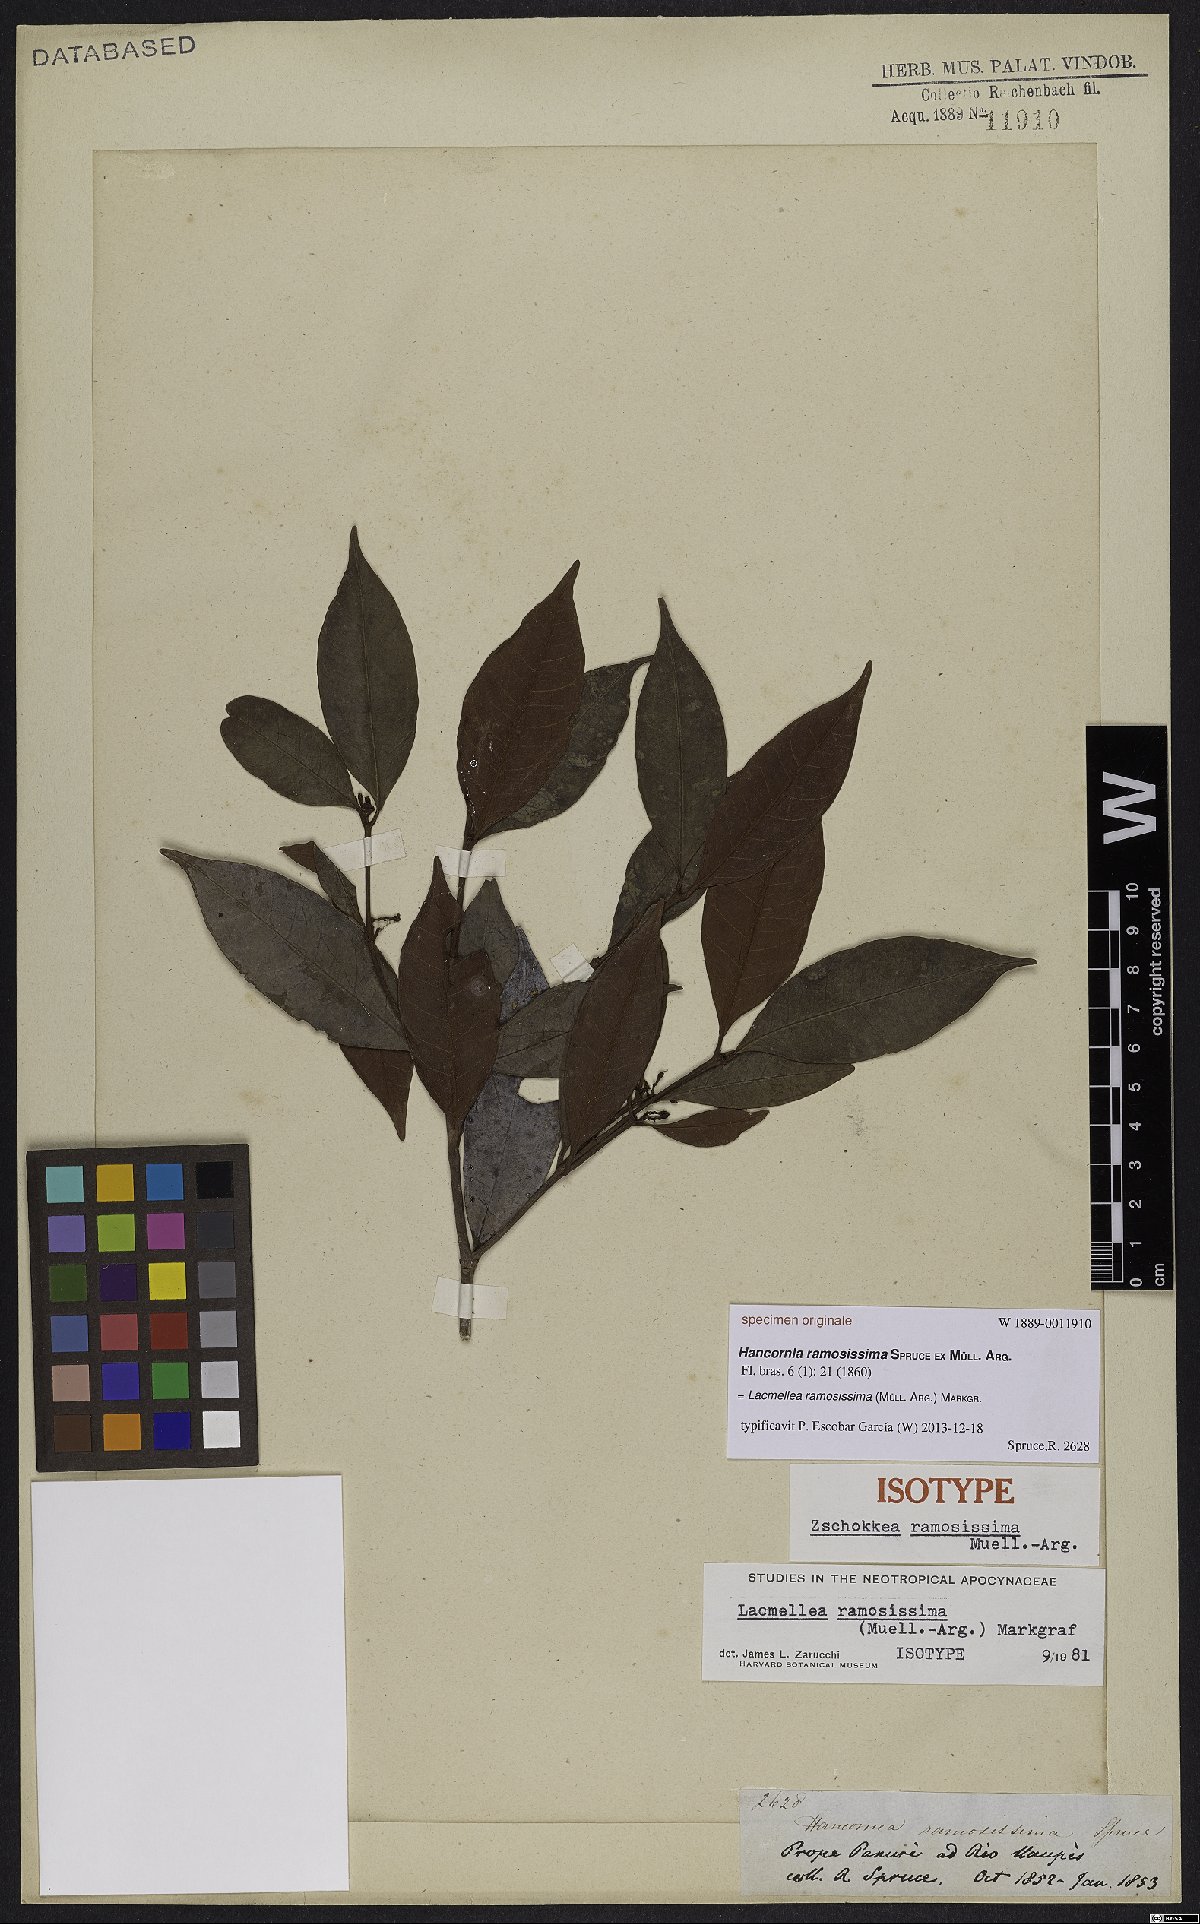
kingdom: Plantae
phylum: Tracheophyta
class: Magnoliopsida
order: Gentianales
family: Apocynaceae
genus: Lacmellea
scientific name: Lacmellea ramosissima
